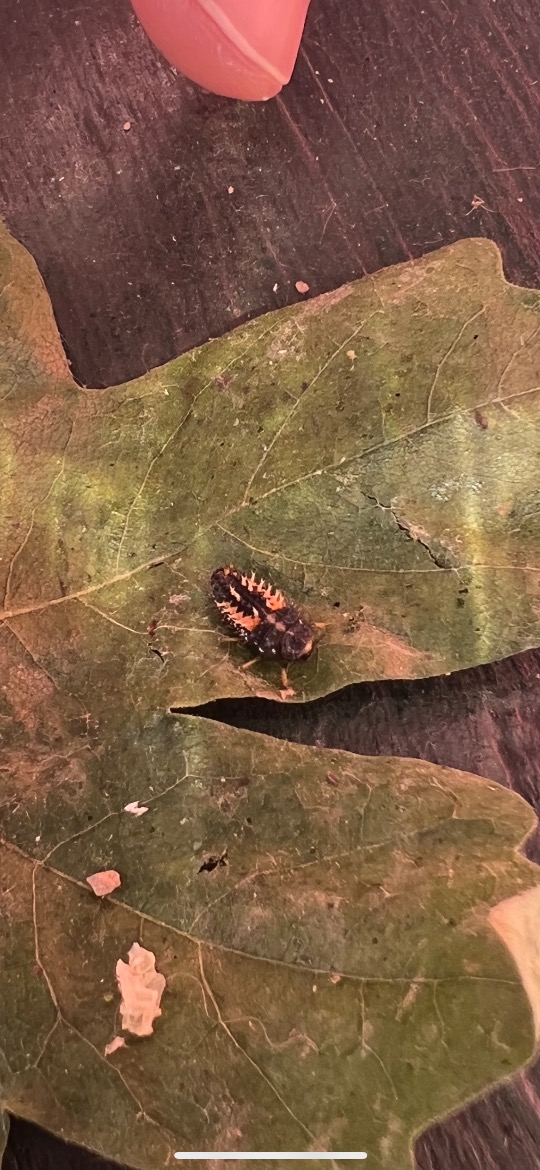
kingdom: Animalia
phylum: Arthropoda
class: Insecta
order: Coleoptera
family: Coccinellidae
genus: Harmonia
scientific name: Harmonia axyridis
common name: Harlekinmariehøne
